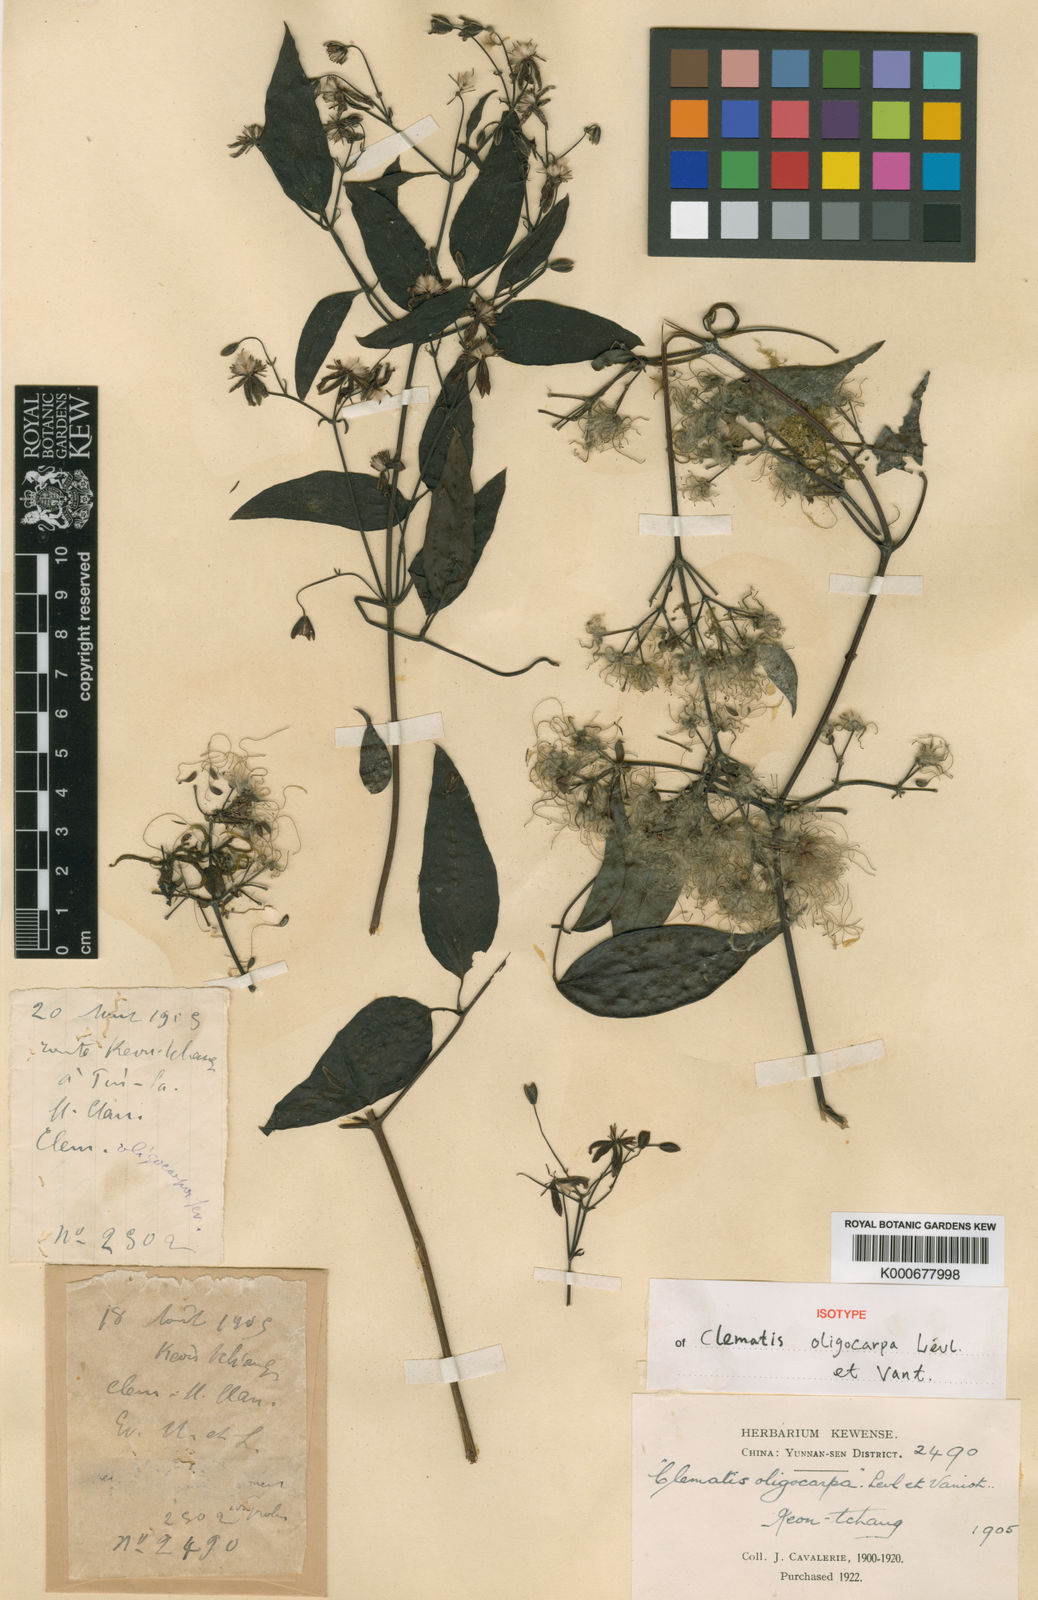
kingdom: Plantae
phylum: Tracheophyta
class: Magnoliopsida
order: Ranunculales
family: Ranunculaceae
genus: Clematis
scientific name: Clematis chinensis
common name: Chinese clematis
